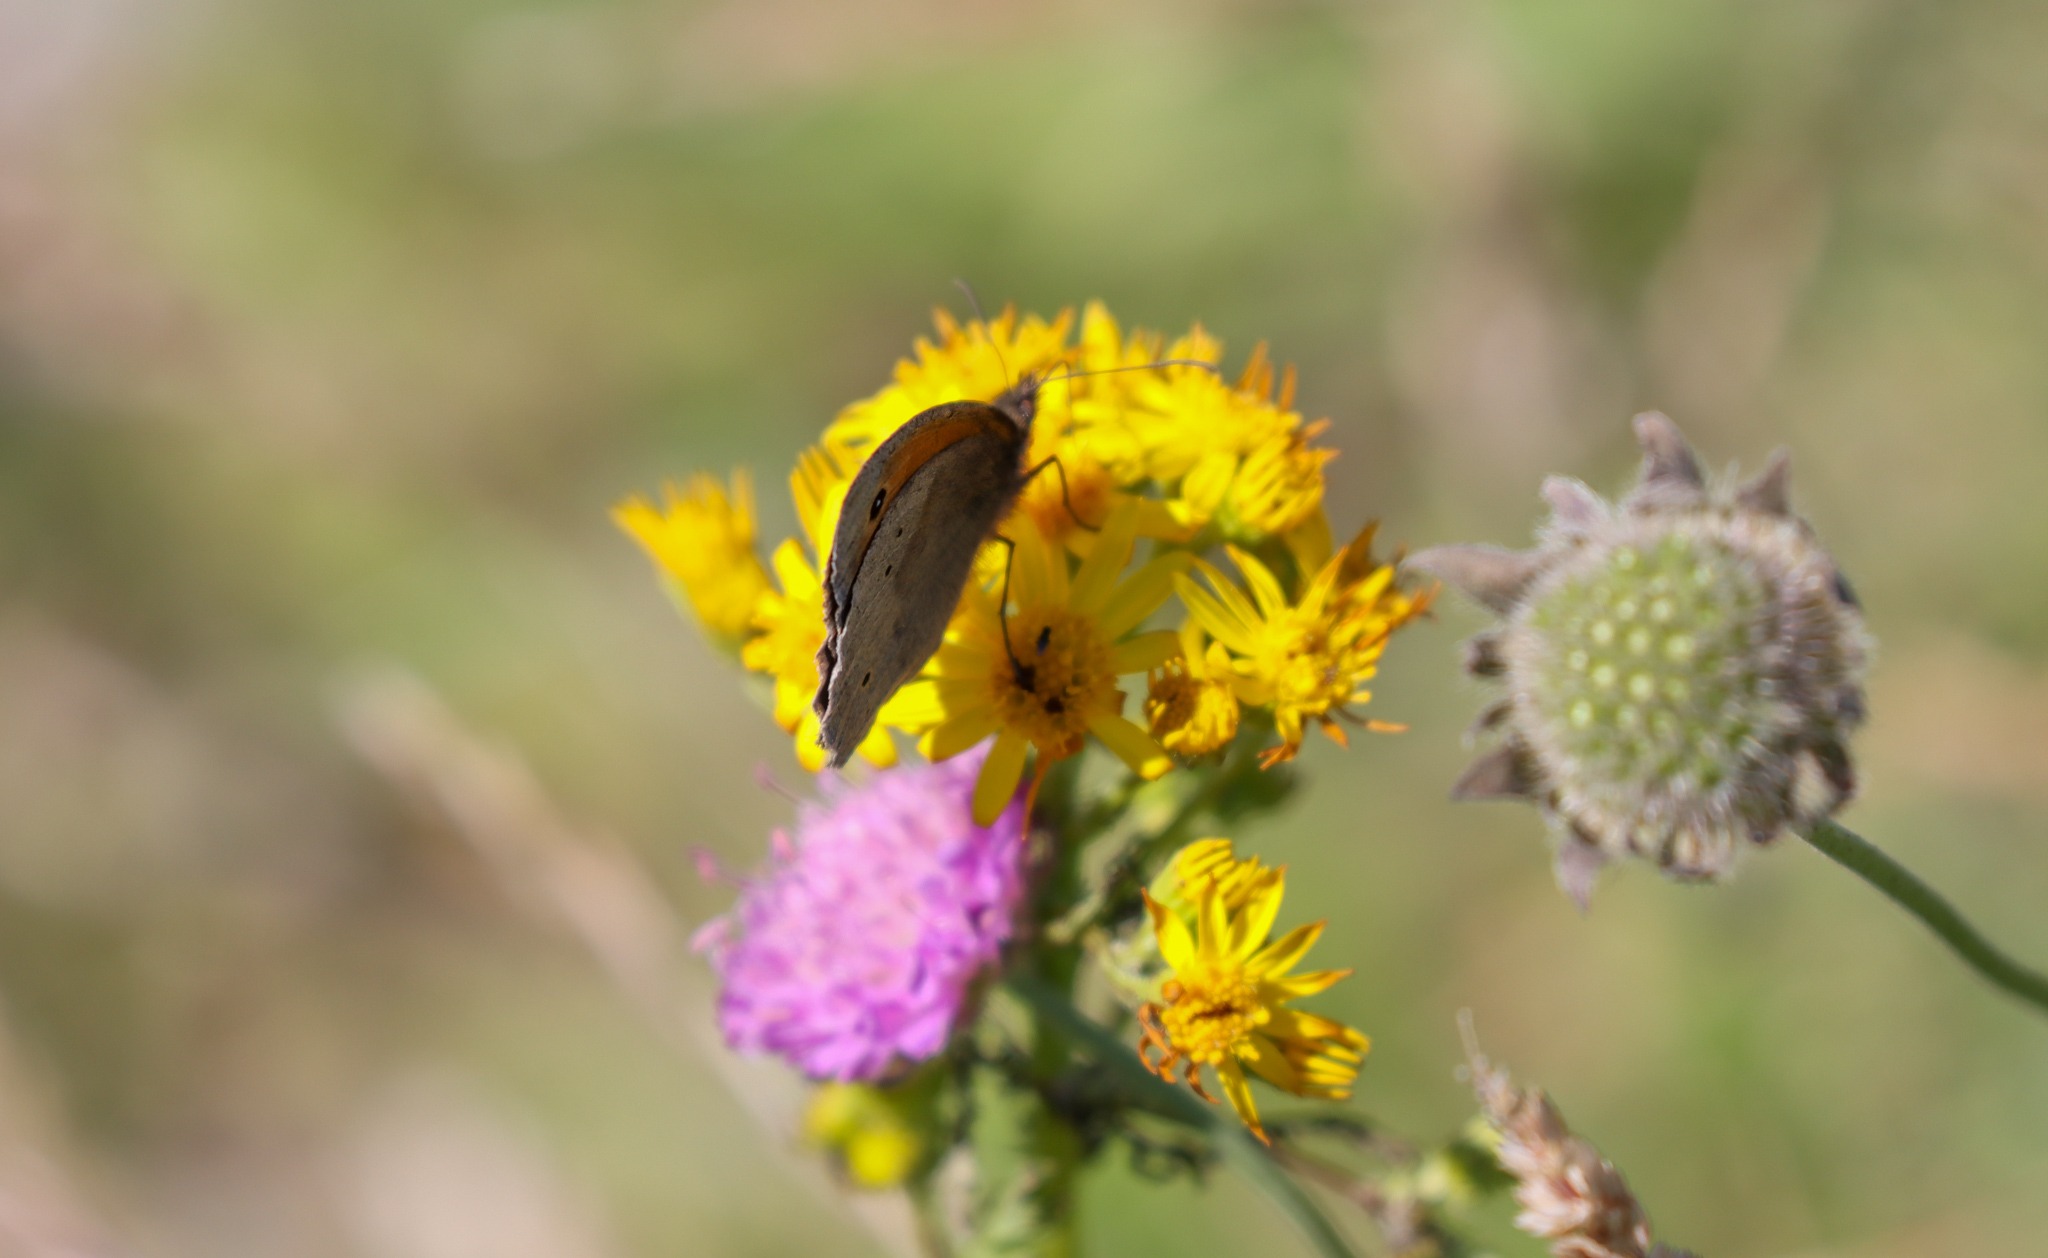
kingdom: Animalia
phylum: Arthropoda
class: Insecta
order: Lepidoptera
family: Nymphalidae
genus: Maniola
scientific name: Maniola jurtina
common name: Græsrandøje
